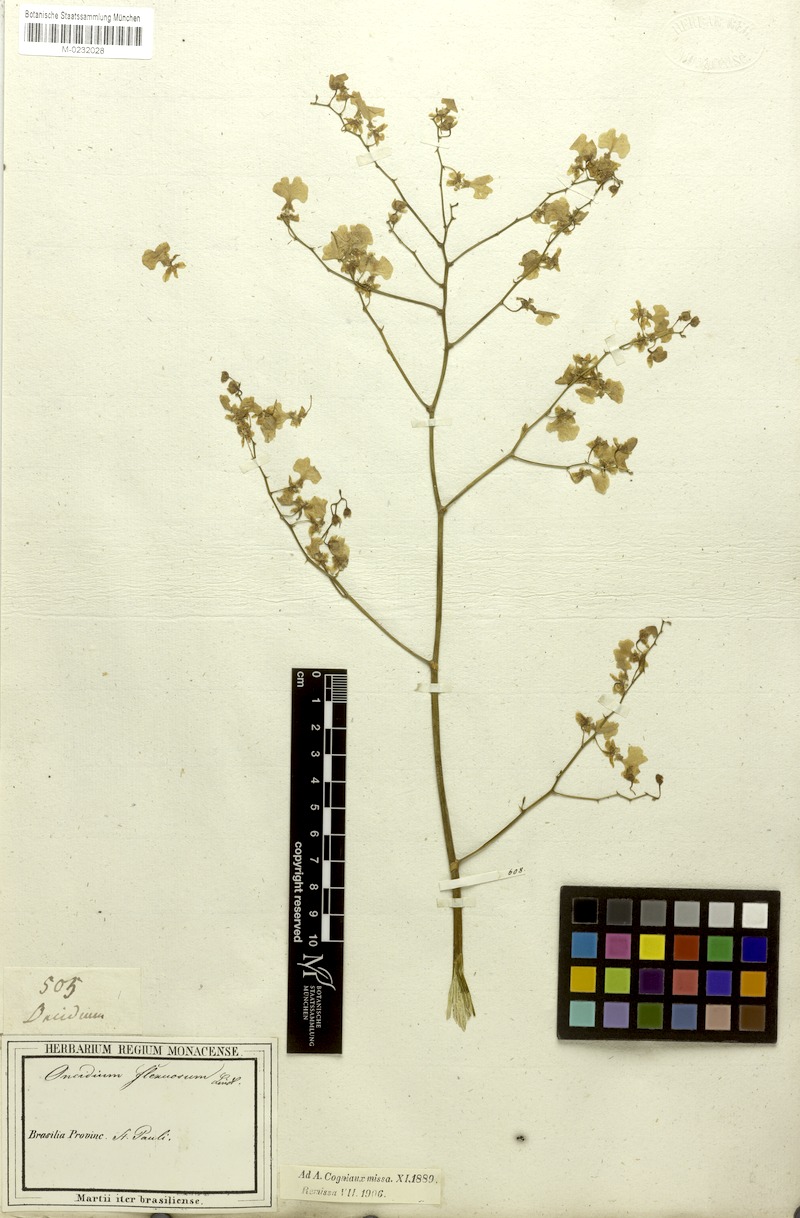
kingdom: Plantae
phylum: Tracheophyta
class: Liliopsida
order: Asparagales
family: Orchidaceae
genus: Cyrtochilum
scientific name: Cyrtochilum cimiciferum
